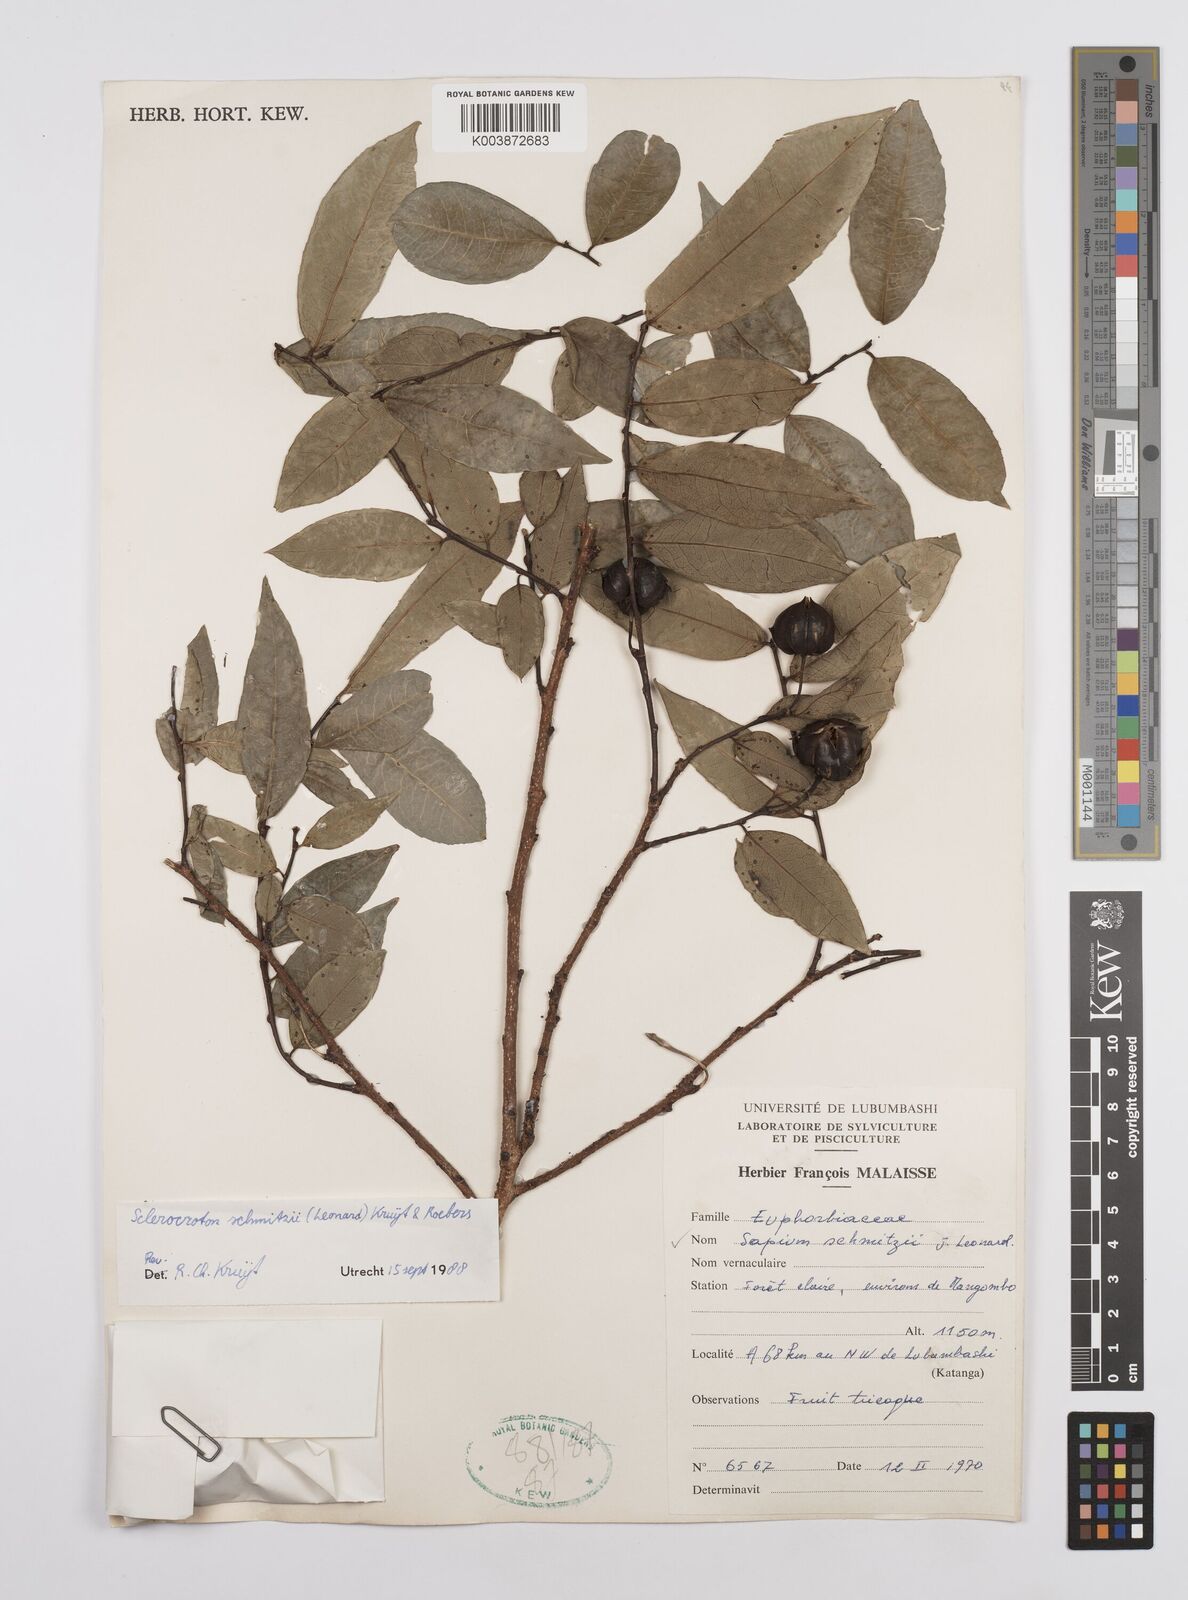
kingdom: Plantae
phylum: Tracheophyta
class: Magnoliopsida
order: Malpighiales
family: Euphorbiaceae
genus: Sclerocroton
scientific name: Sclerocroton schmitzii
